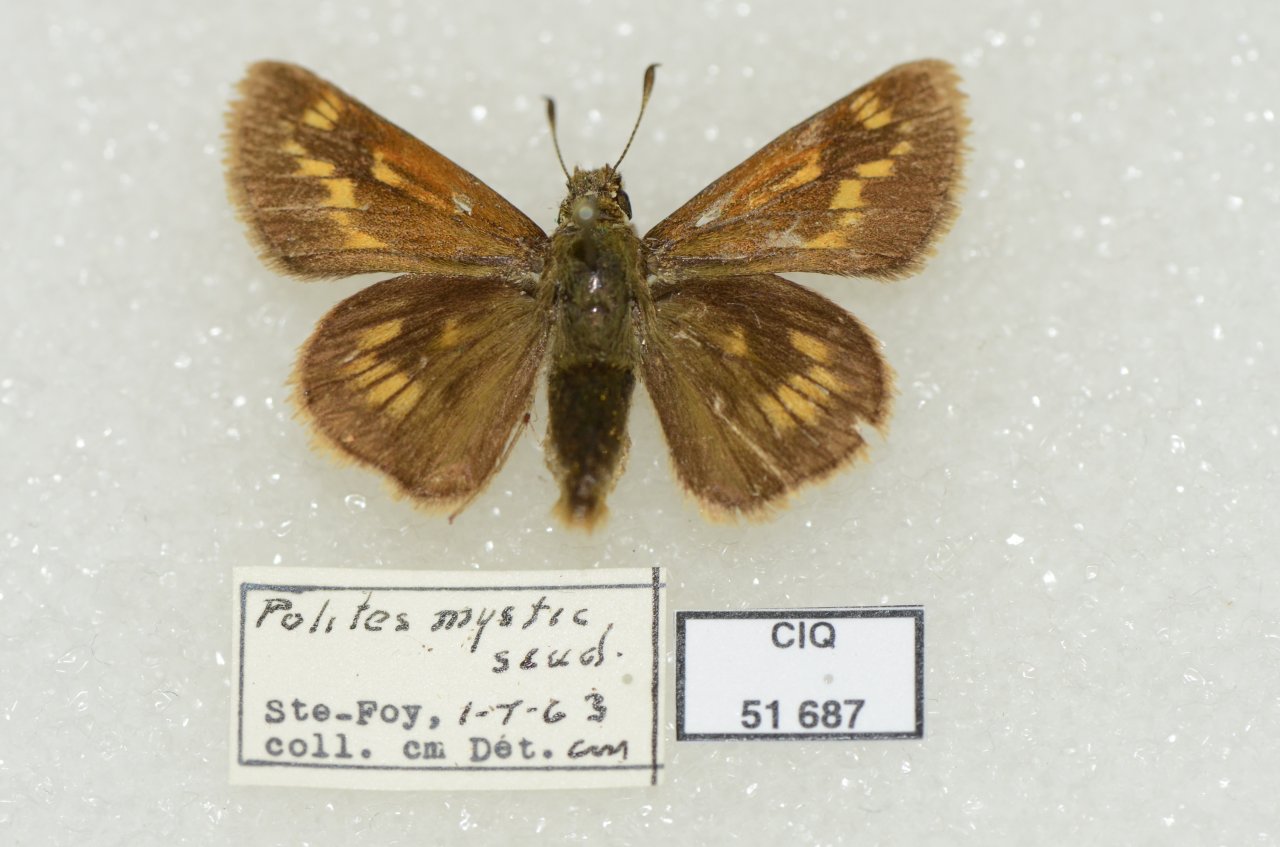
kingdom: Animalia
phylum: Arthropoda
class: Insecta
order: Lepidoptera
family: Hesperiidae
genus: Polites
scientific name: Polites
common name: Long Dash Skipper
